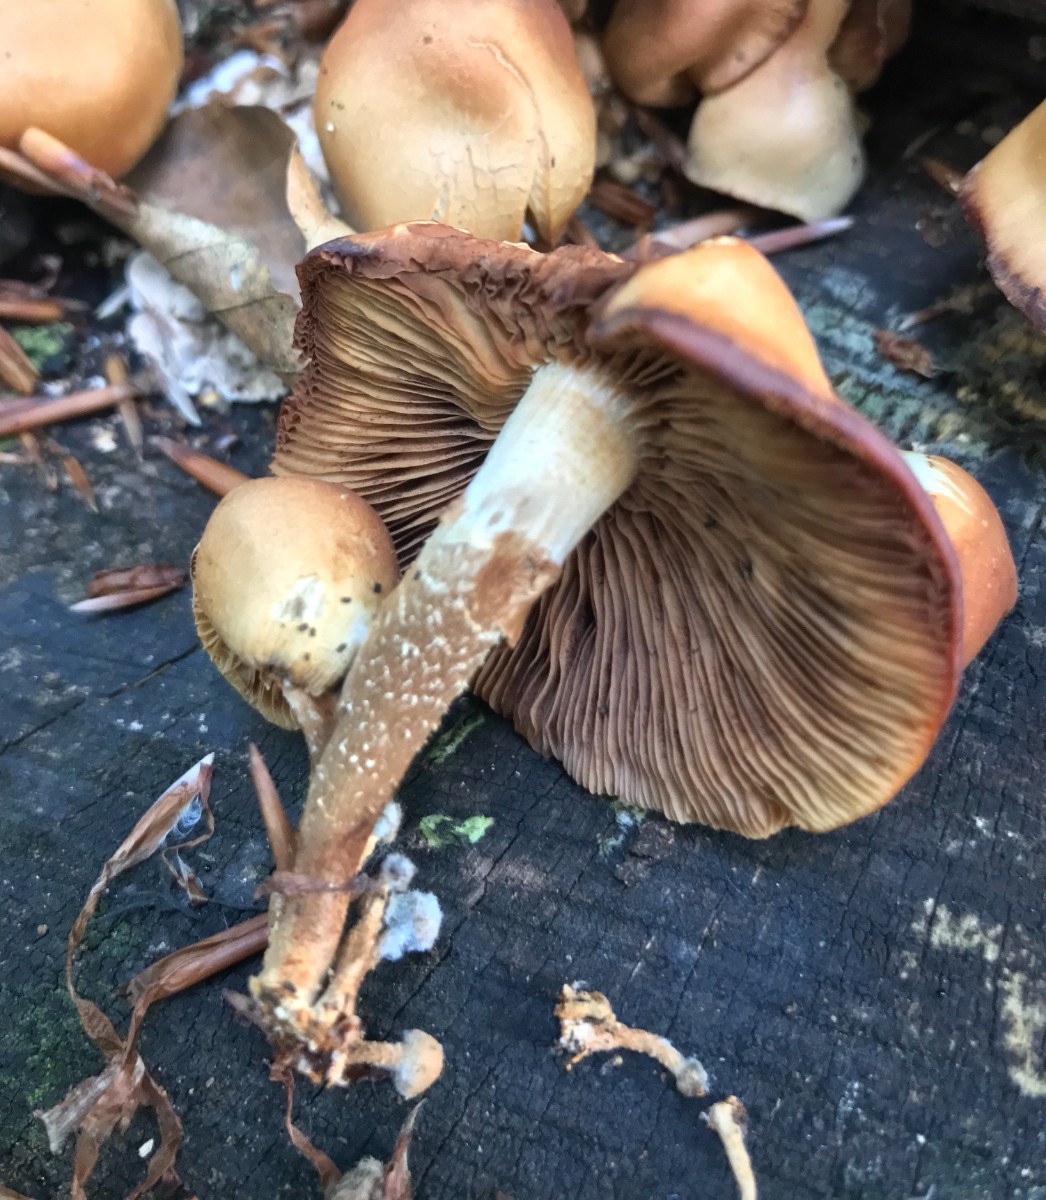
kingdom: Fungi
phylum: Basidiomycota
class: Agaricomycetes
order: Agaricales
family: Strophariaceae
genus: Kuehneromyces
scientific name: Kuehneromyces mutabilis
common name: foranderlig skælhat
